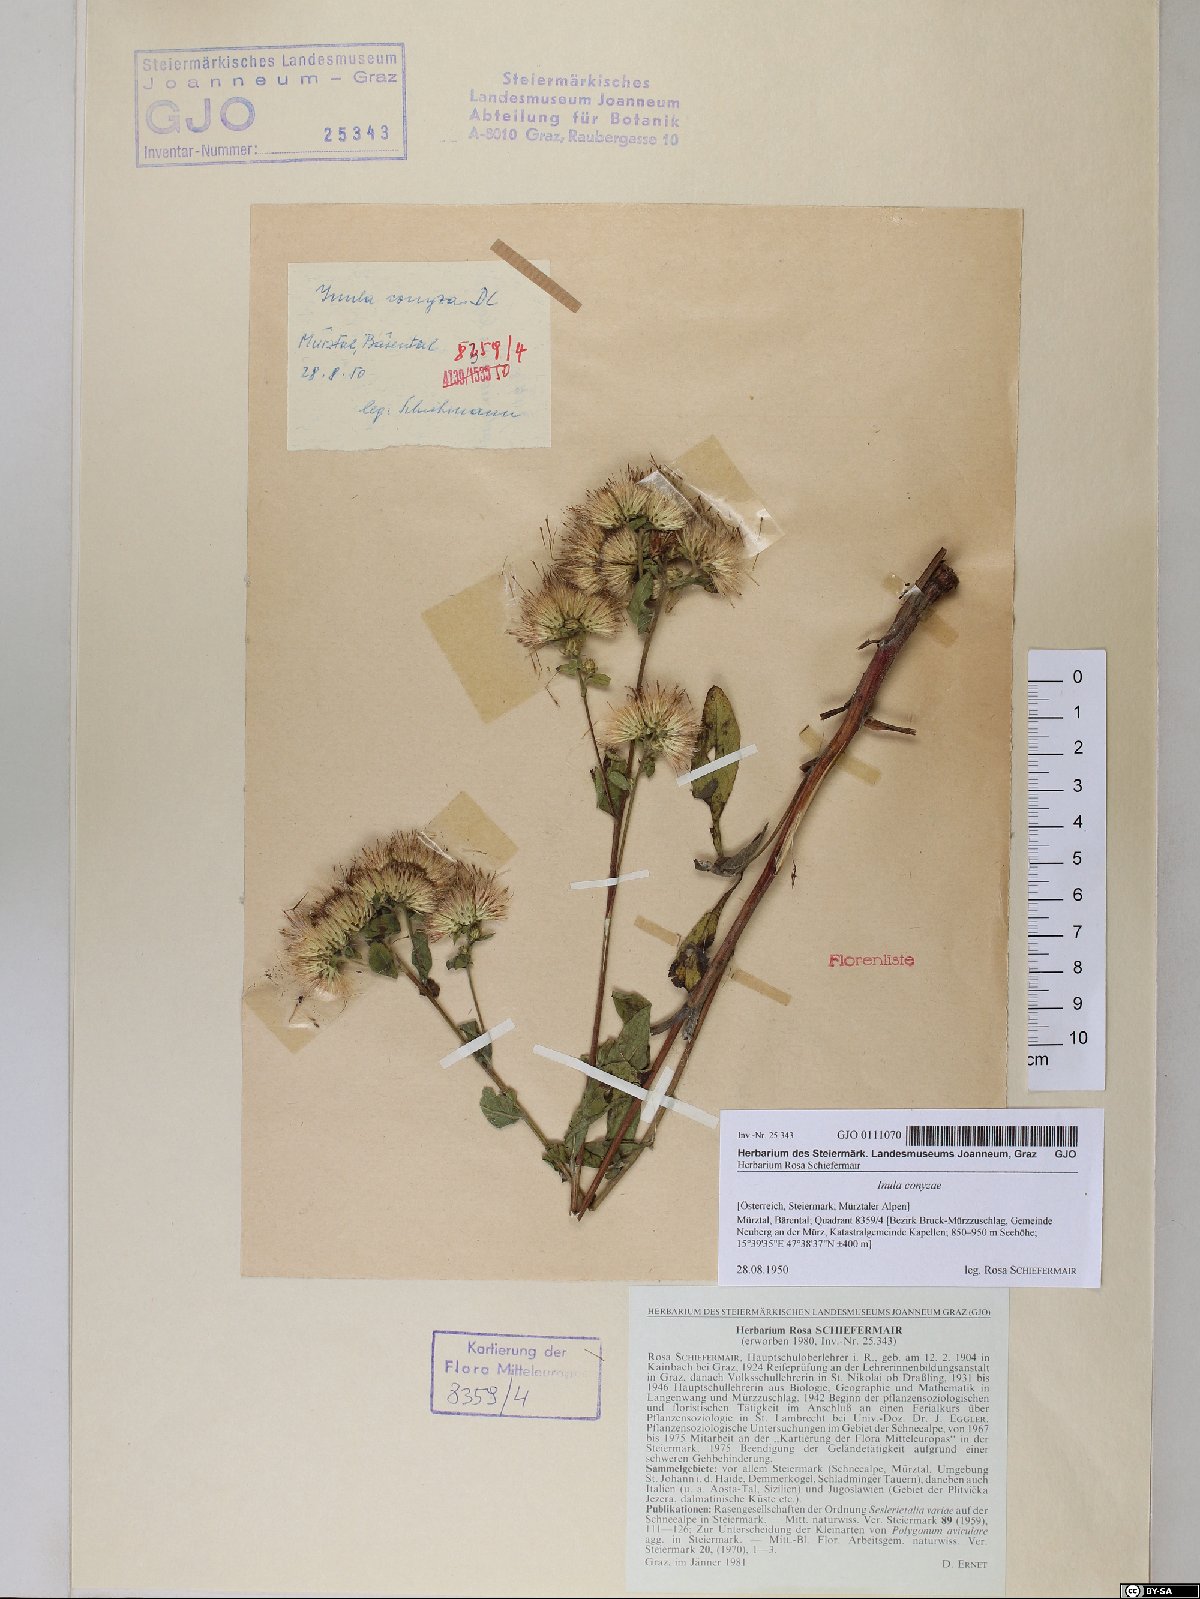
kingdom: Plantae
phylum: Tracheophyta
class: Magnoliopsida
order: Asterales
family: Asteraceae
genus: Pentanema
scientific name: Pentanema squarrosum
